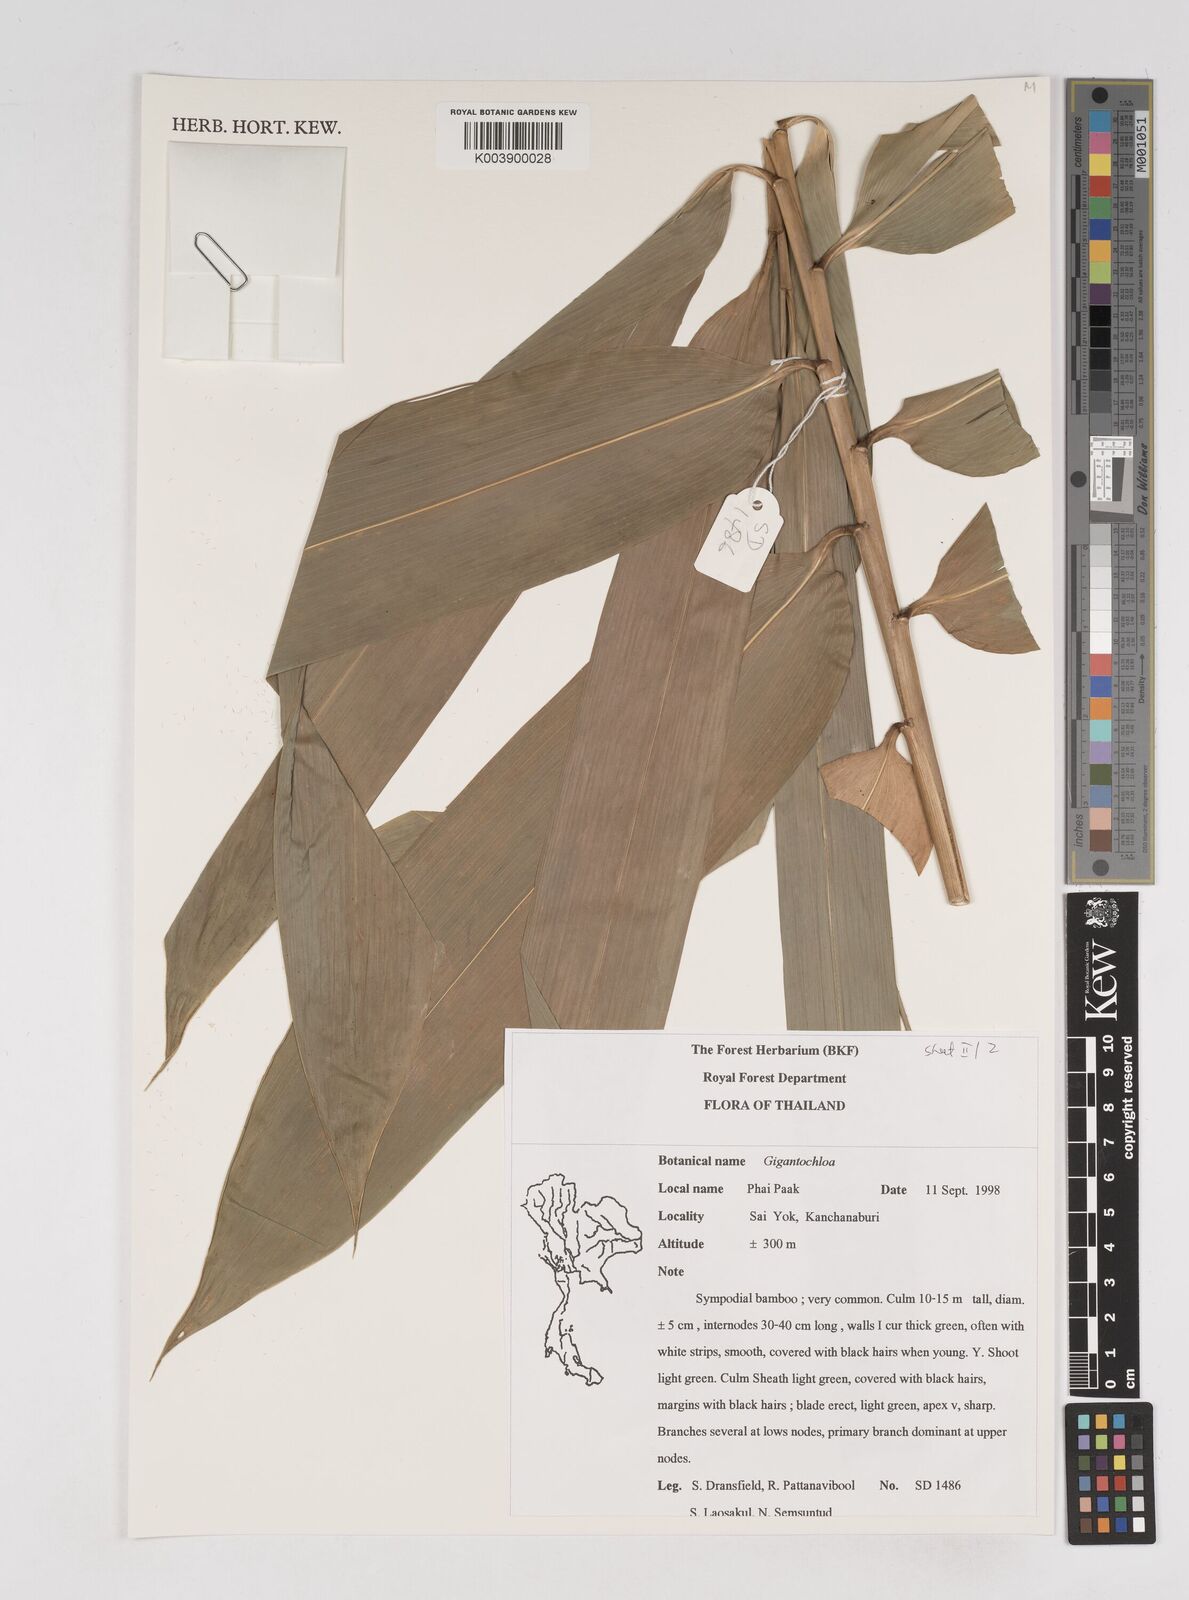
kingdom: Plantae
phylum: Tracheophyta
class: Liliopsida
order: Poales
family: Poaceae
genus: Gigantochloa
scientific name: Gigantochloa
